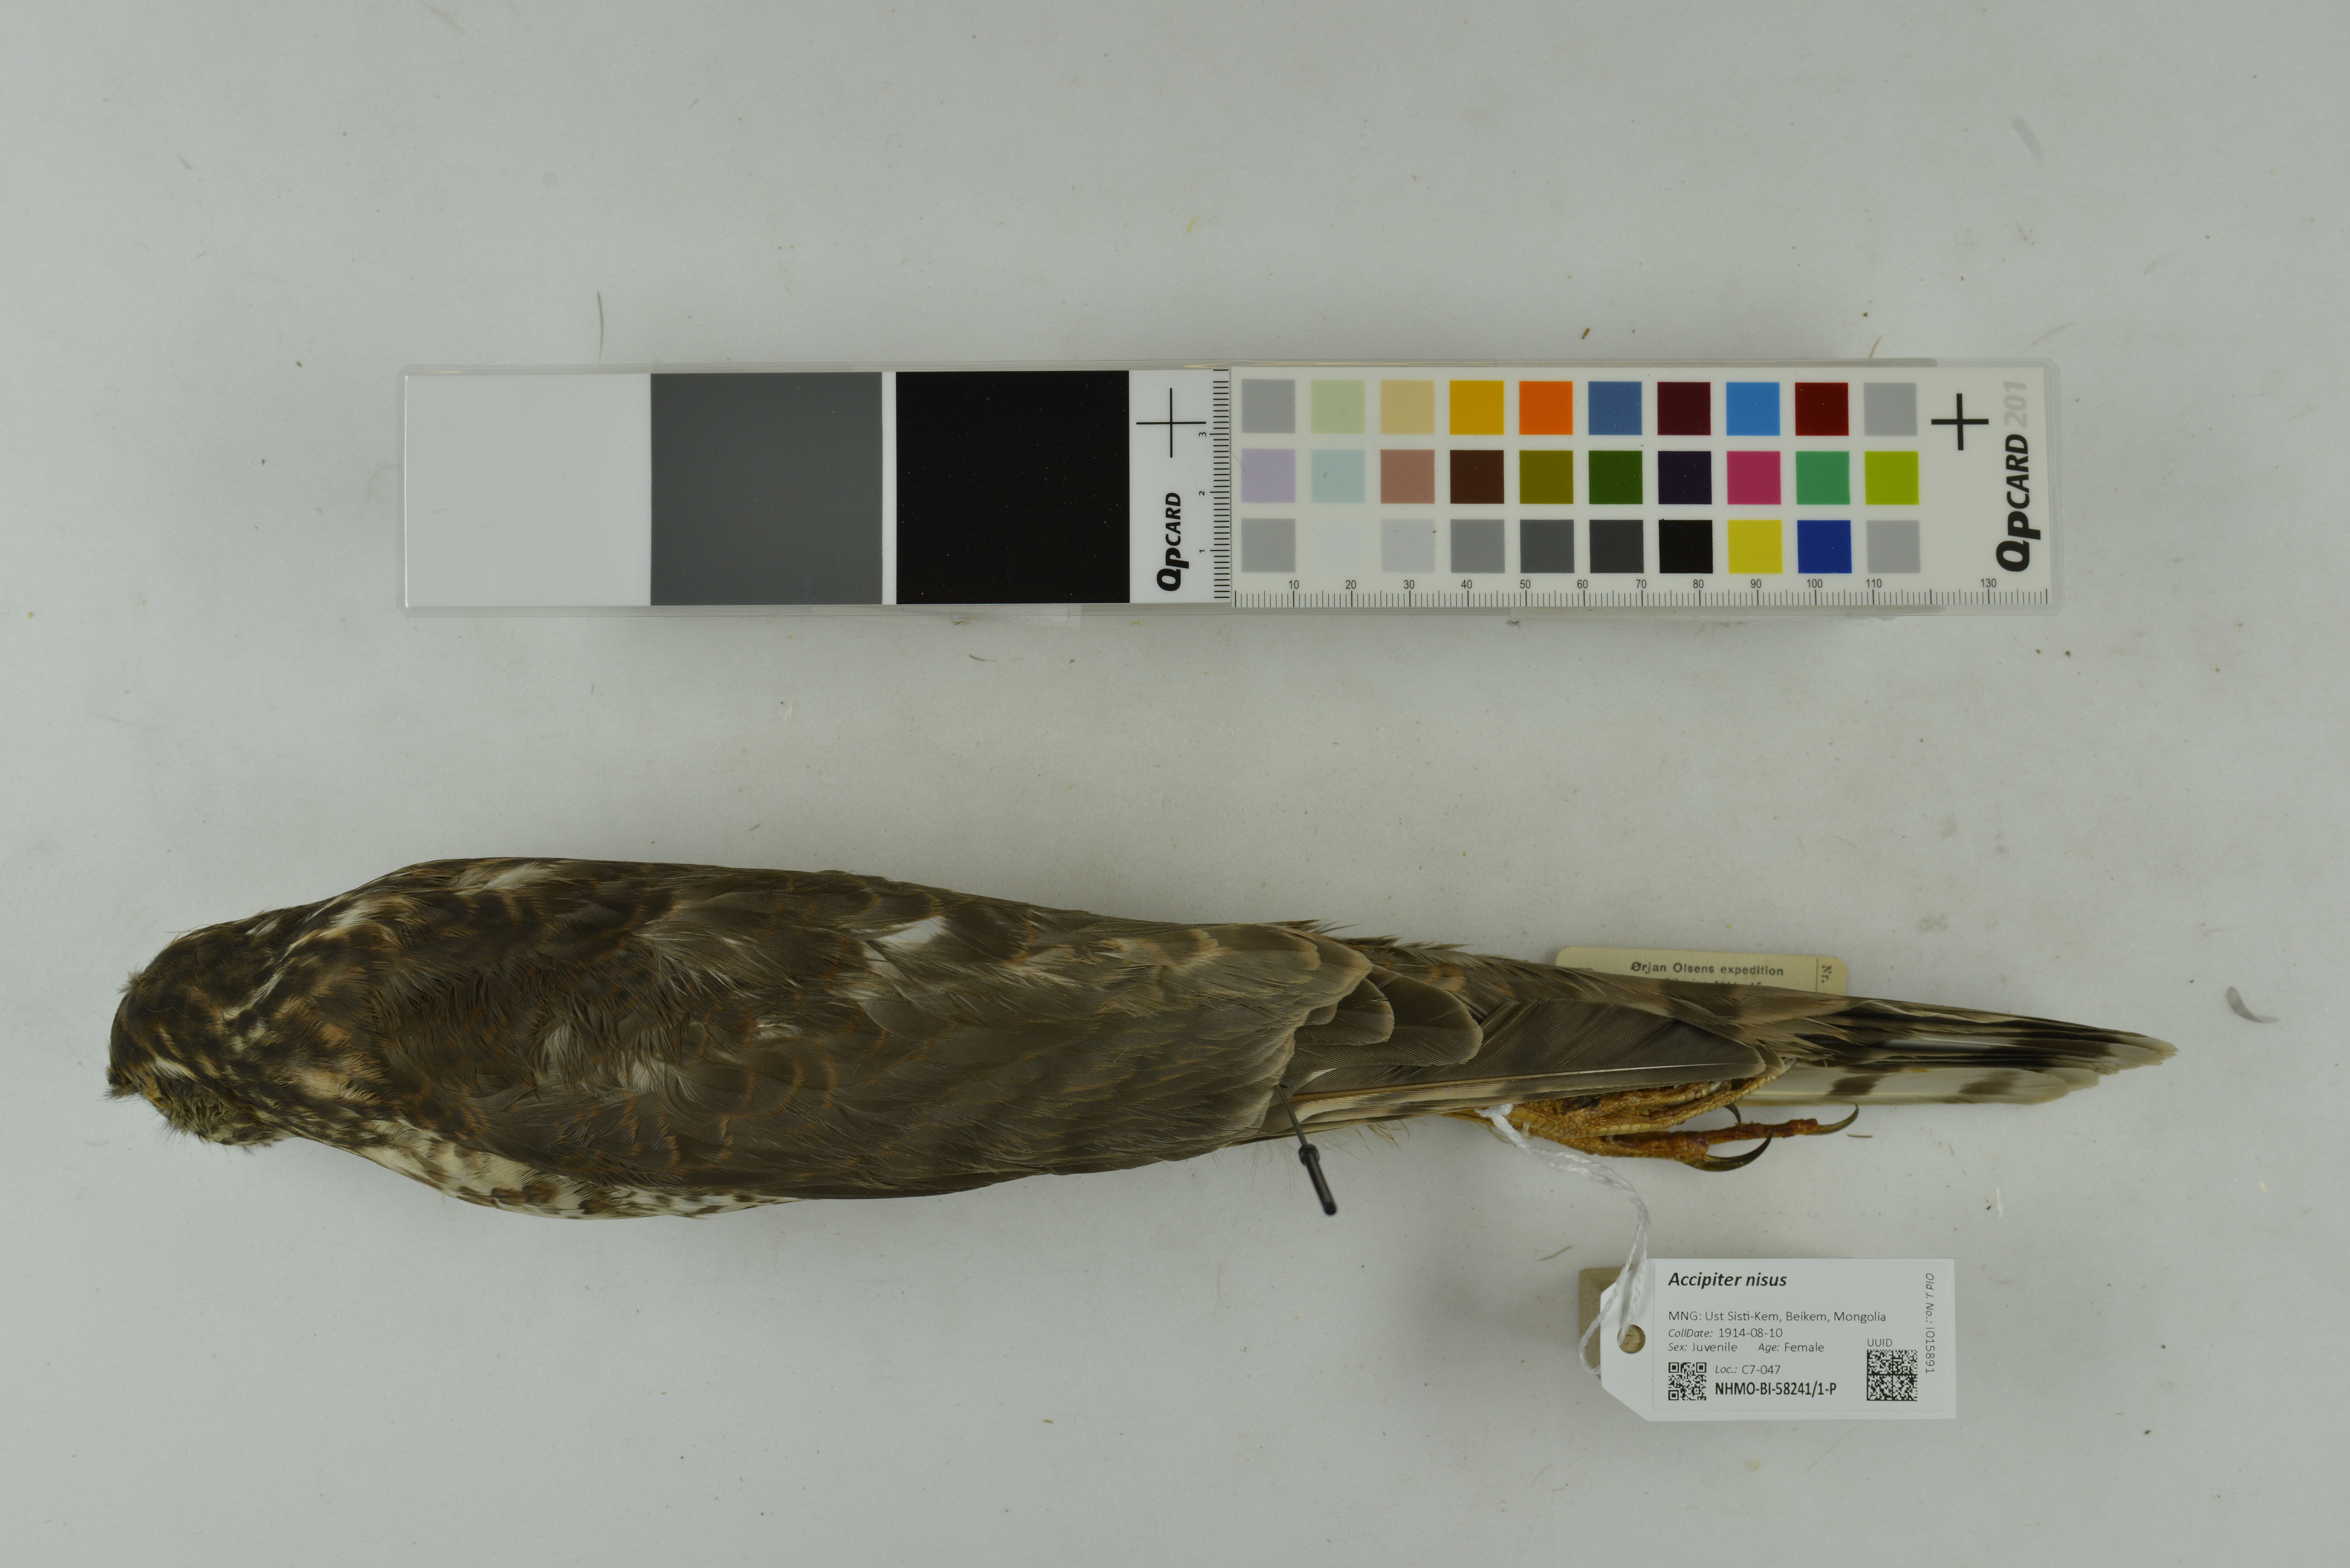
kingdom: Animalia
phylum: Chordata
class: Aves
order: Accipitriformes
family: Accipitridae
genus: Accipiter
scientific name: Accipiter nisus
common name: Eurasian sparrowhawk
